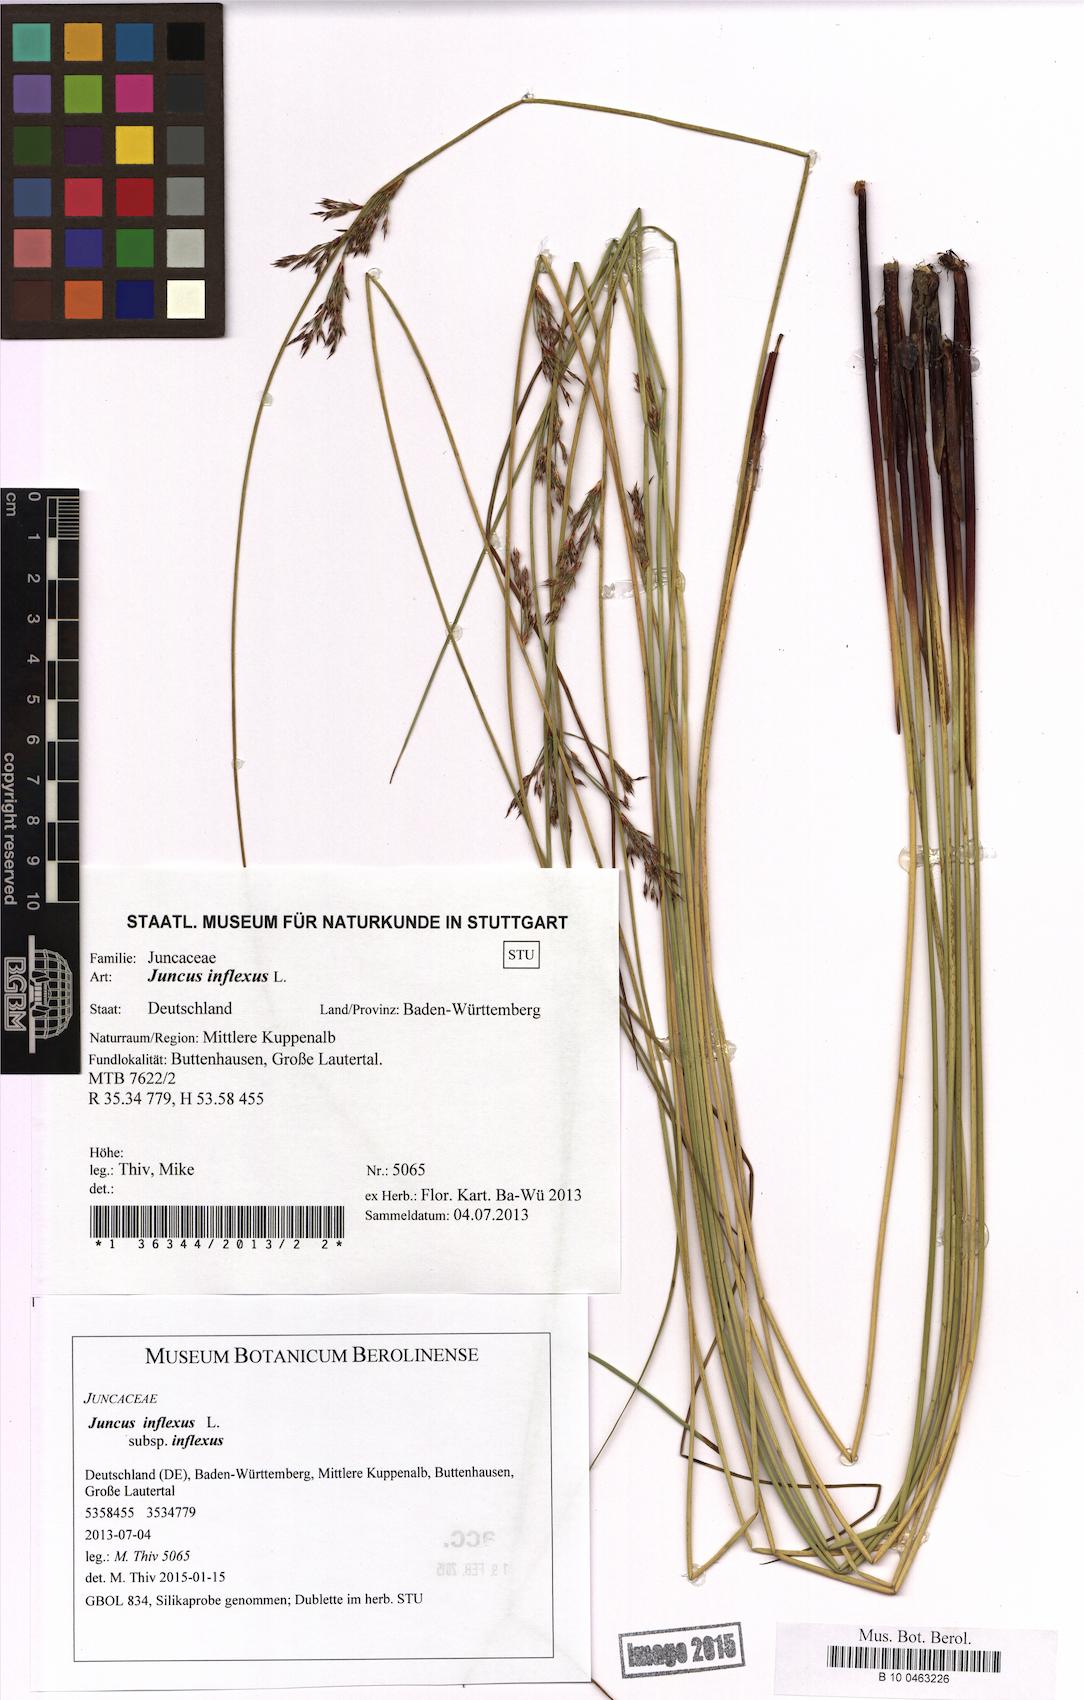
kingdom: Plantae
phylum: Tracheophyta
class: Liliopsida
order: Poales
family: Juncaceae
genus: Juncus
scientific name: Juncus inflexus
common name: Hard rush
